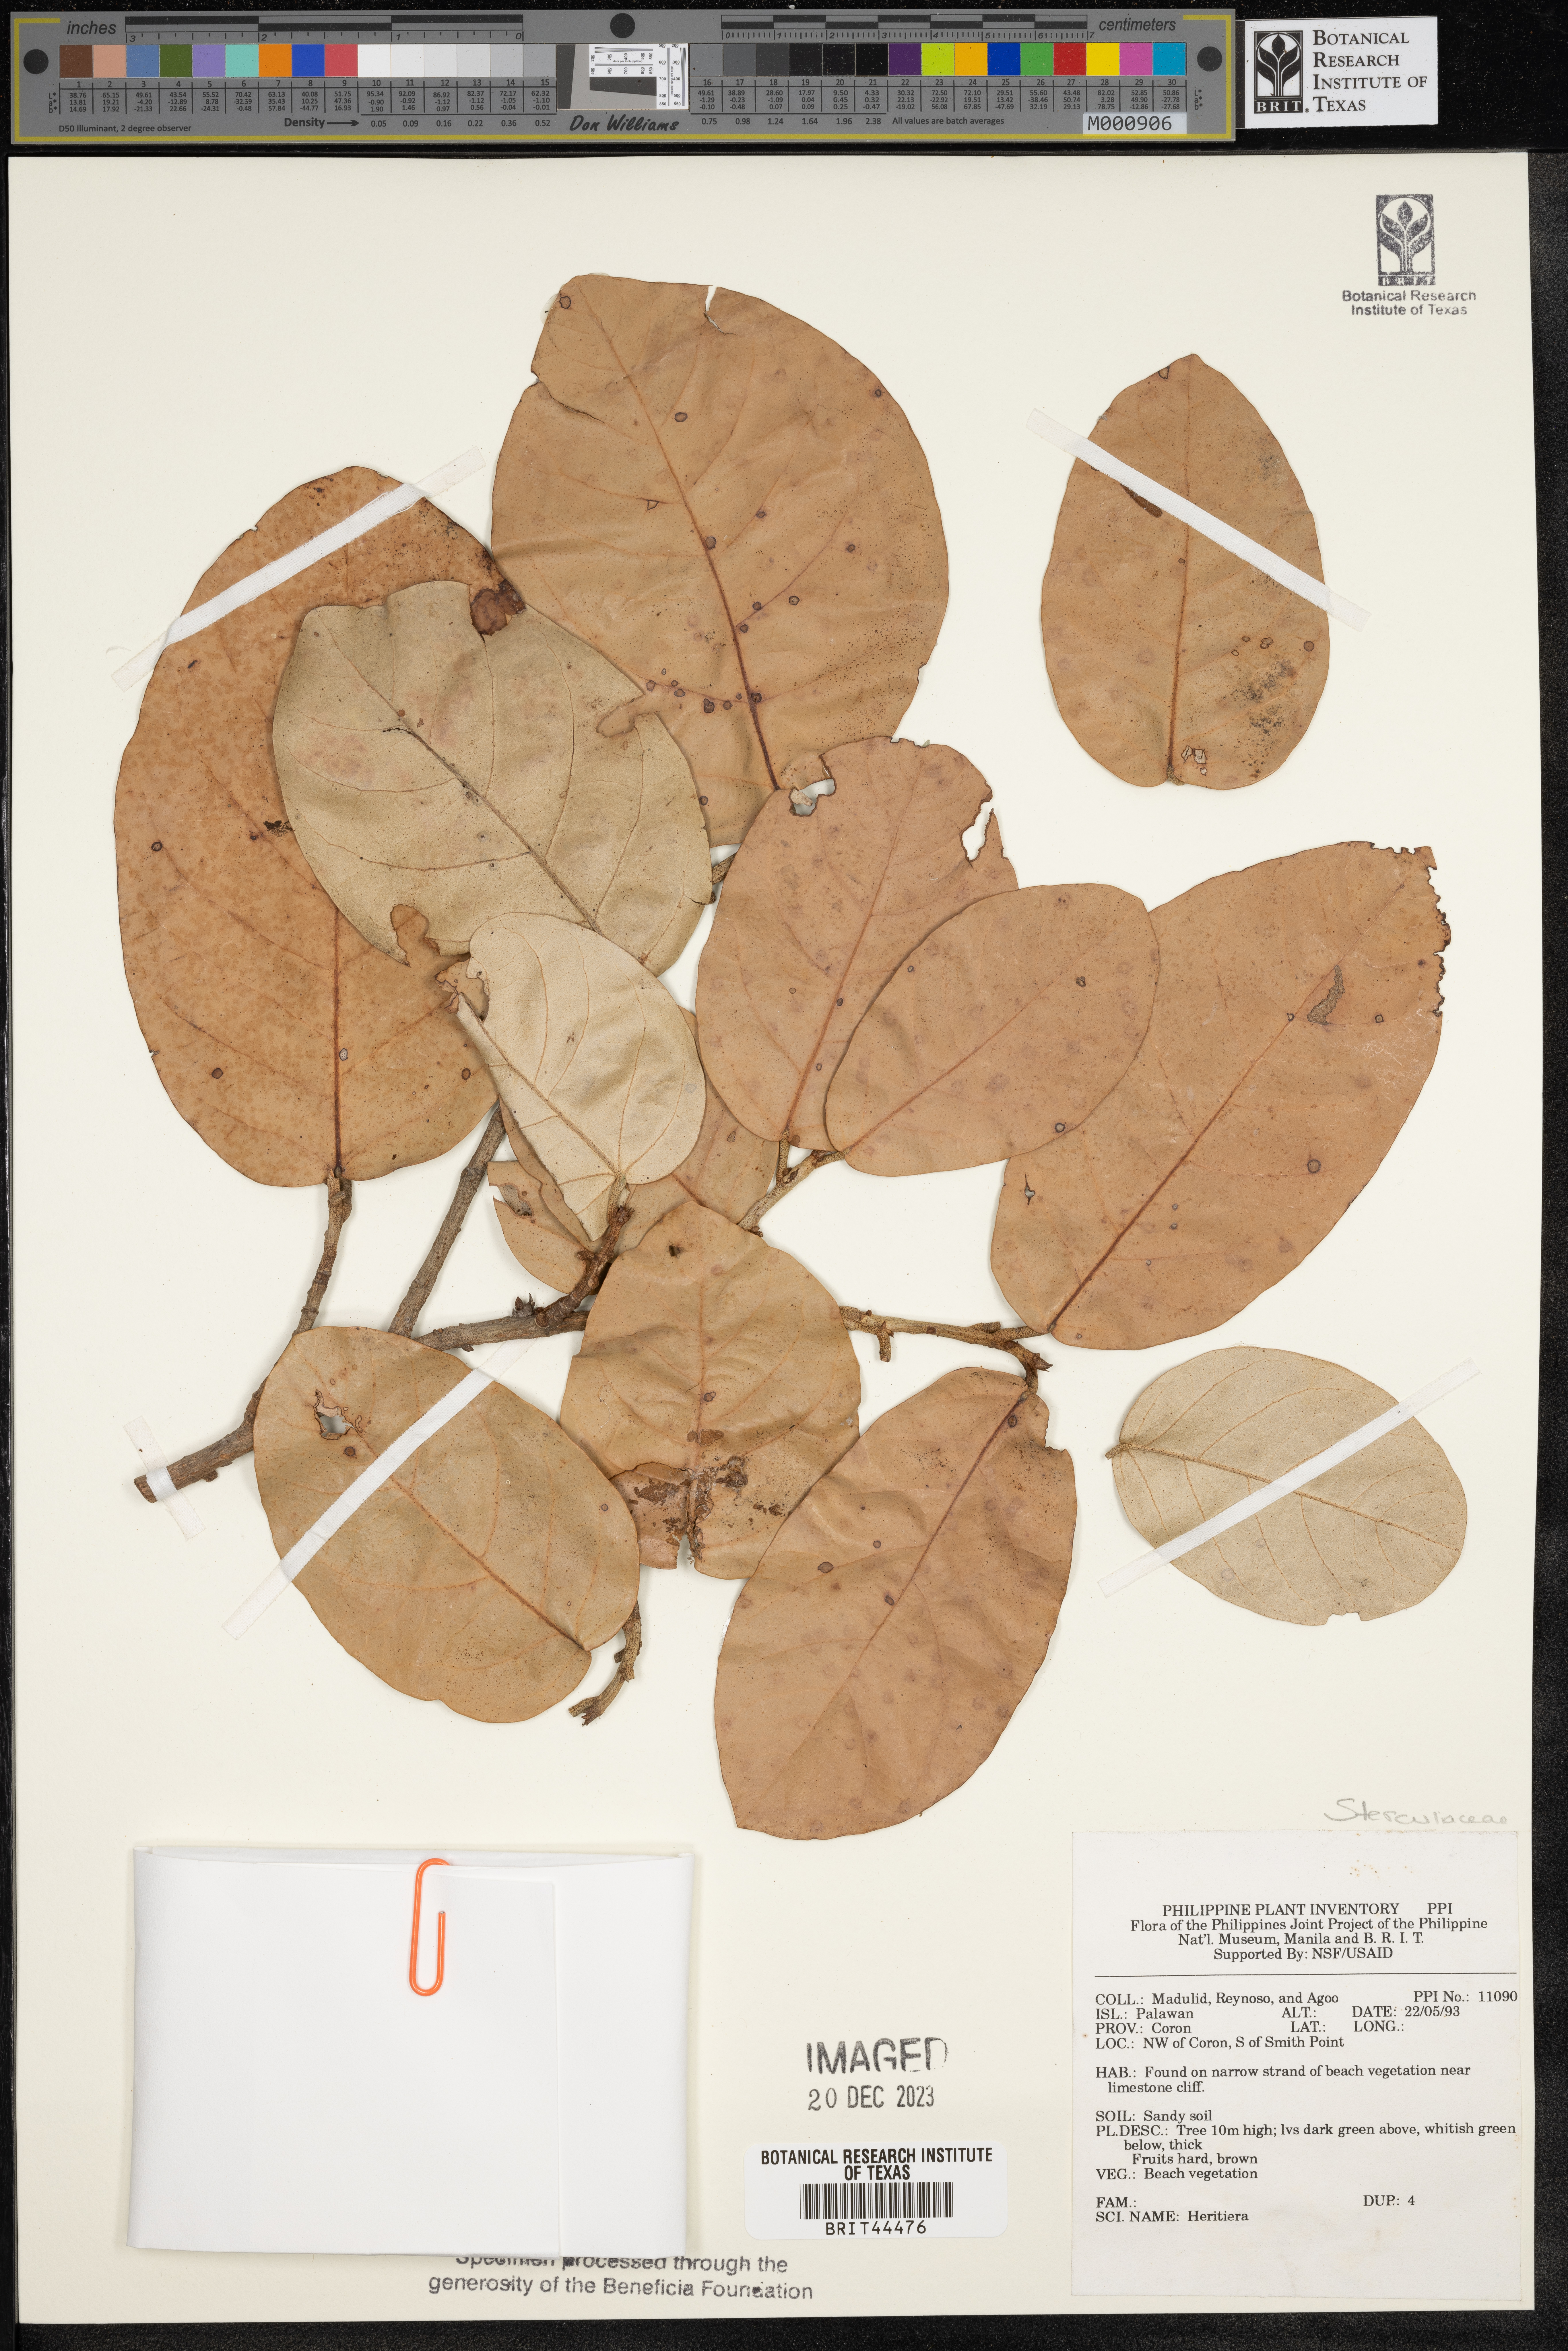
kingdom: Plantae
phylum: Tracheophyta
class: Magnoliopsida
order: Malvales
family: Malvaceae
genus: Heritiera
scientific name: Heritiera
